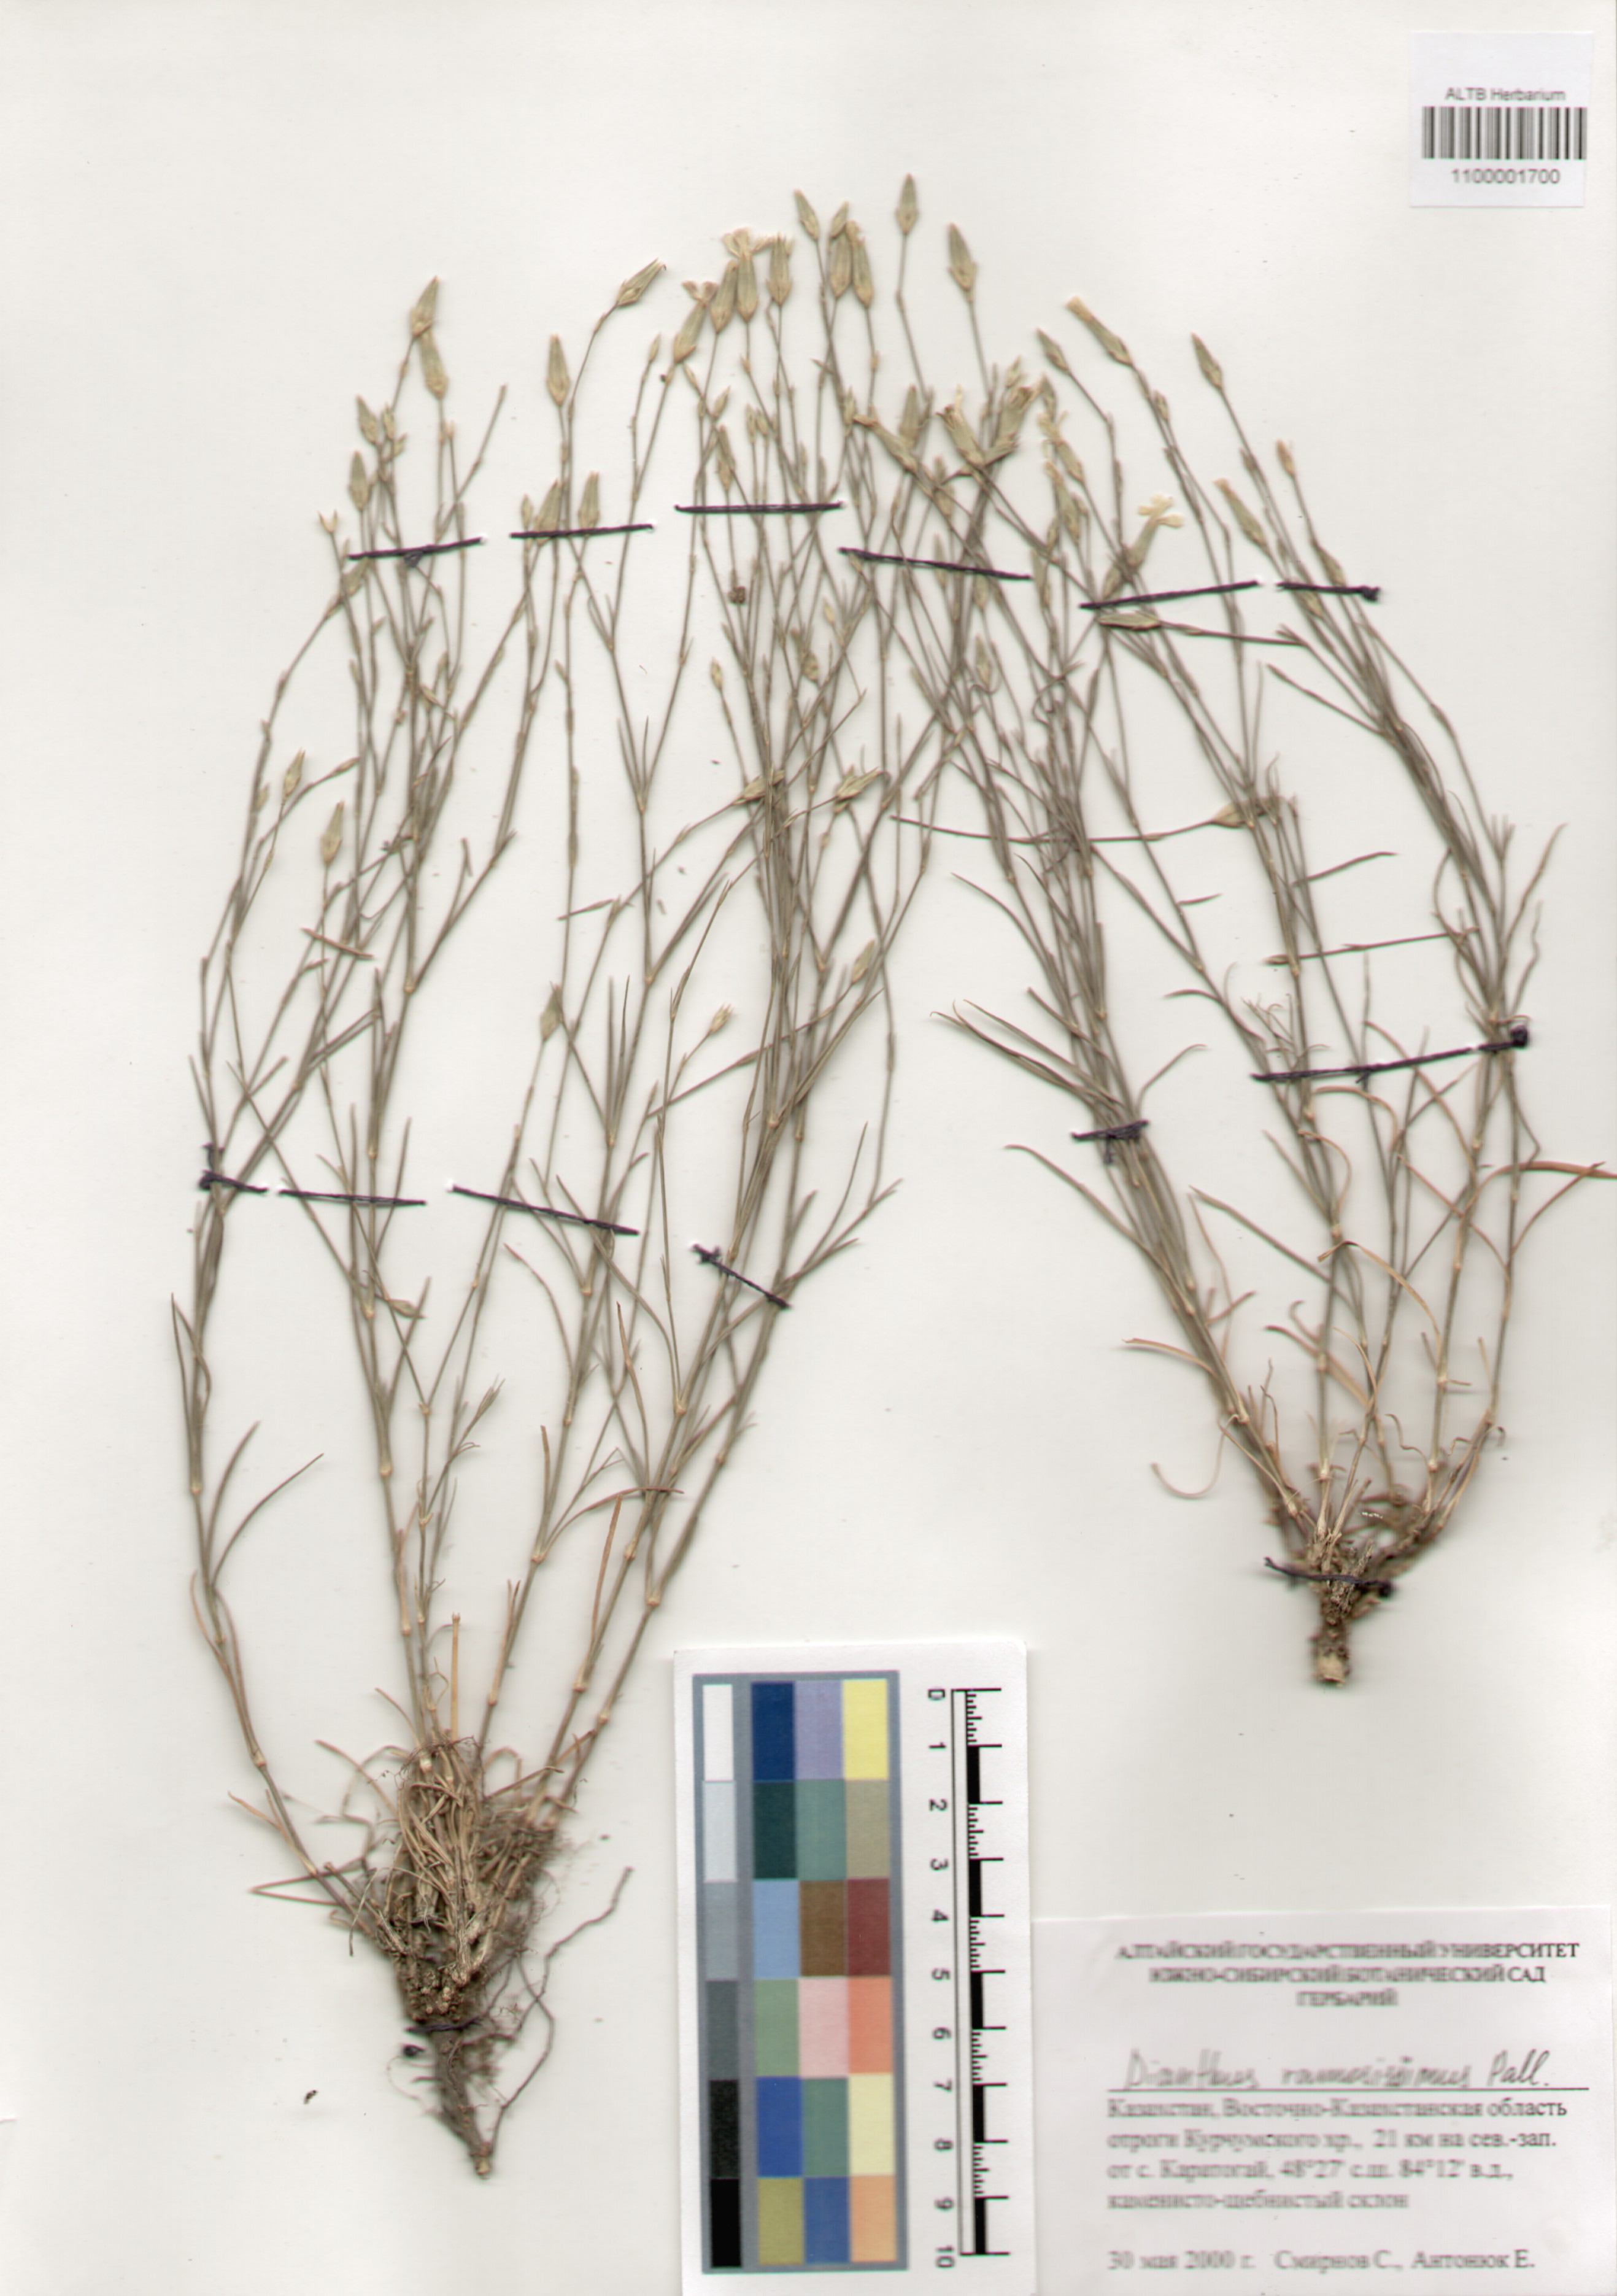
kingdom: Plantae
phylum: Tracheophyta
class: Magnoliopsida
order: Caryophyllales
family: Caryophyllaceae
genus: Dianthus
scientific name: Dianthus ramosissimus
